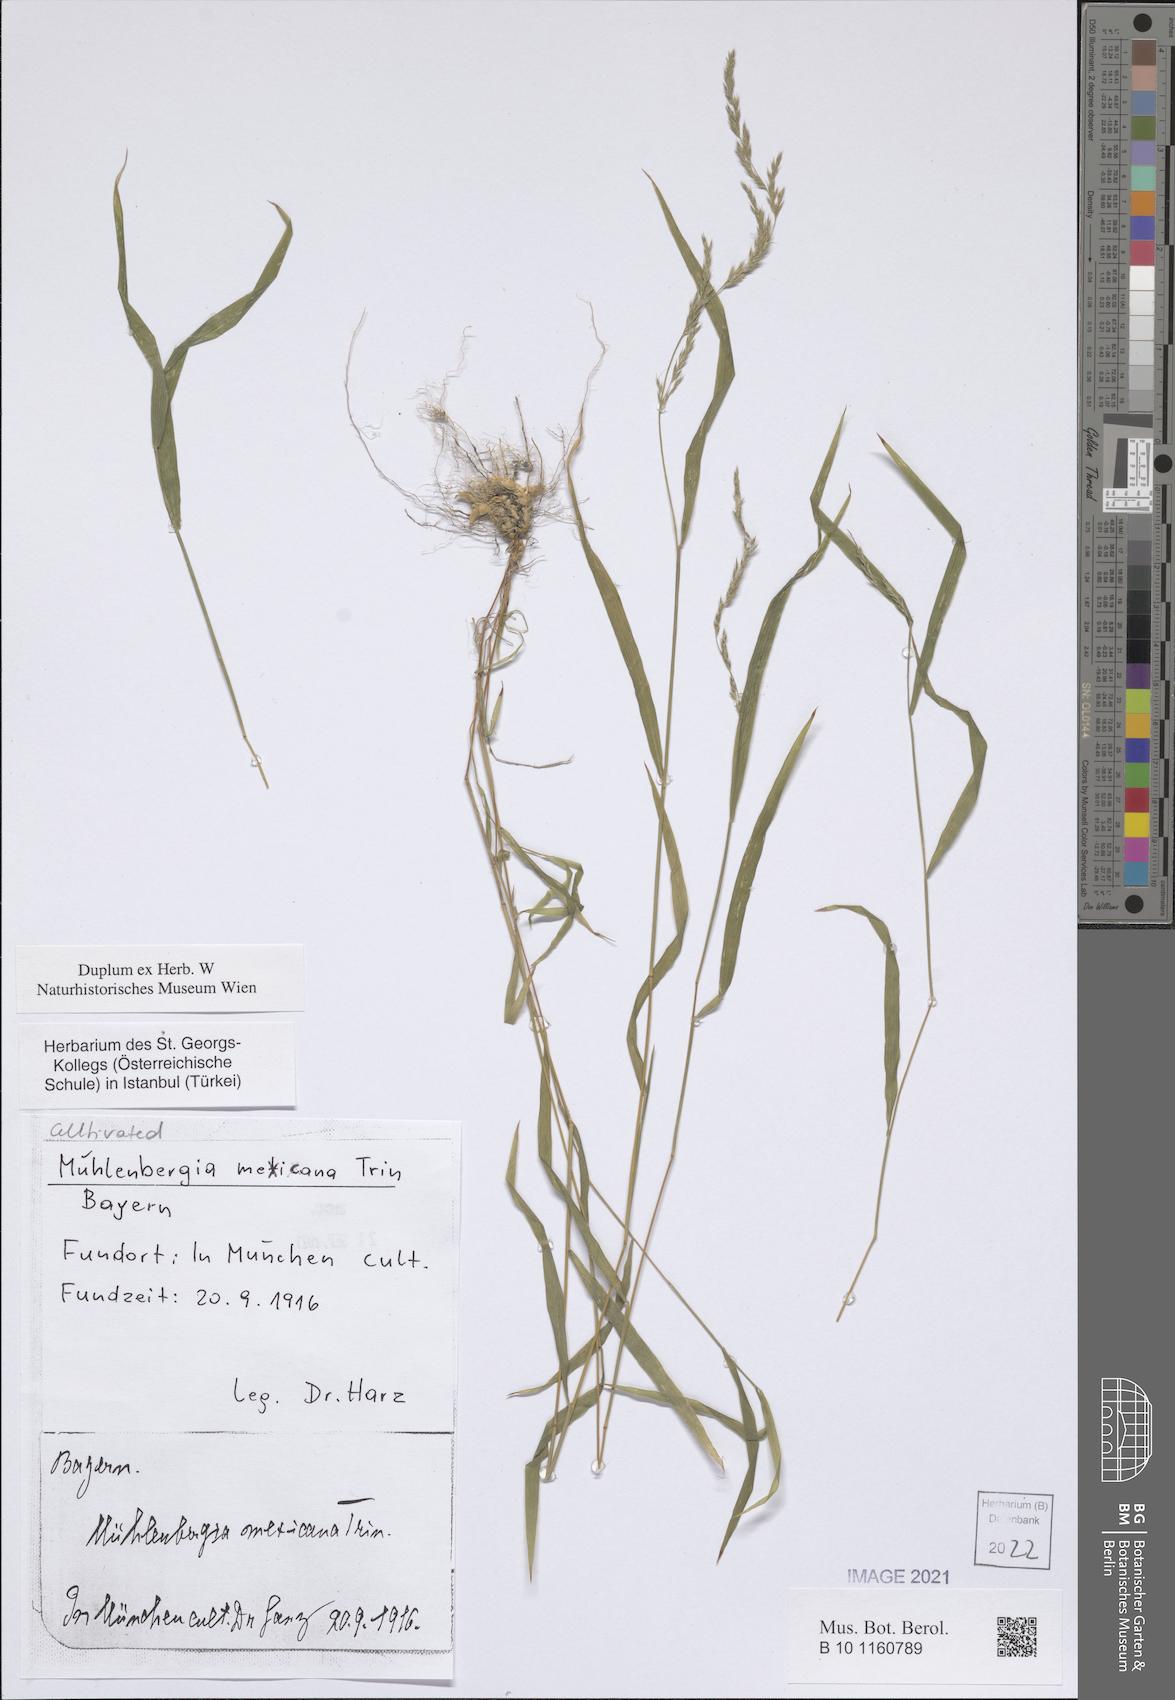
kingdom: Plantae
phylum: Tracheophyta
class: Liliopsida
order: Poales
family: Poaceae
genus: Muhlenbergia
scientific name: Muhlenbergia mexicana
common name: Mexican muhly
